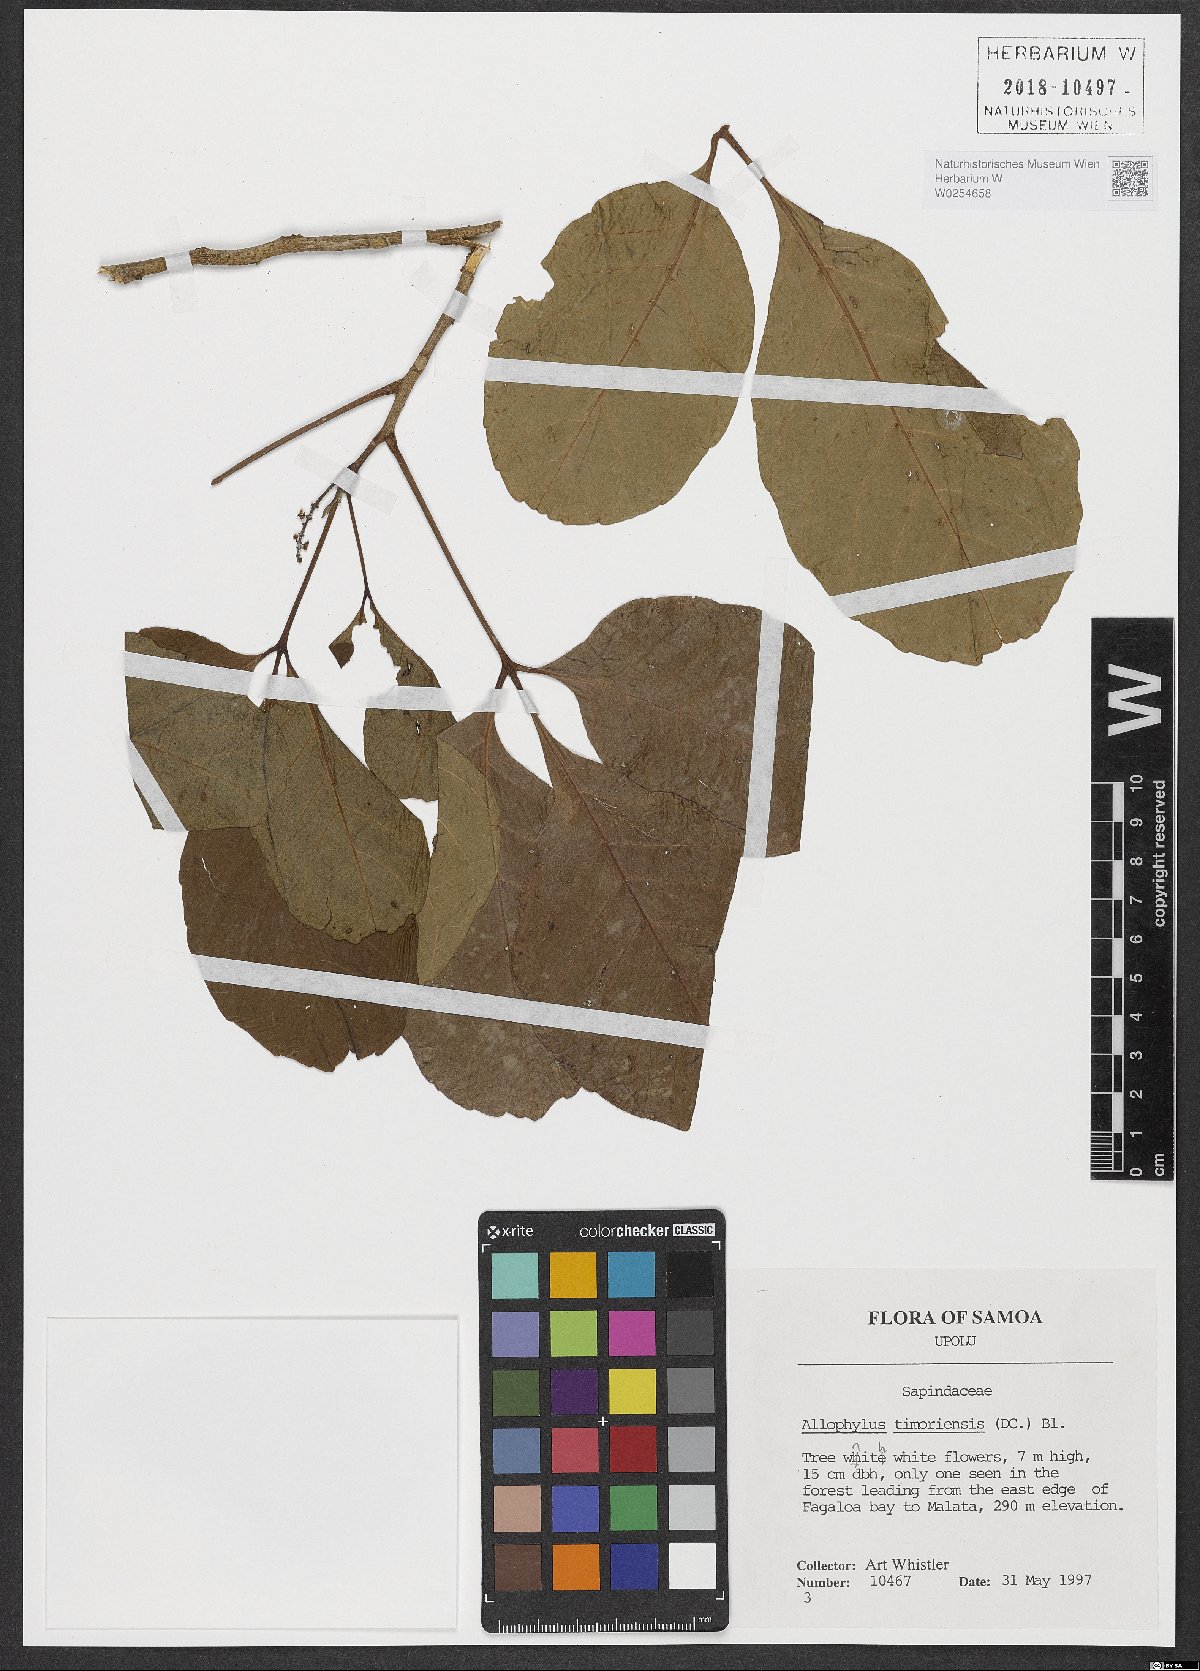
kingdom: Plantae
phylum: Tracheophyta
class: Magnoliopsida
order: Sapindales
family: Sapindaceae
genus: Allophylus
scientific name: Allophylus timorensis
